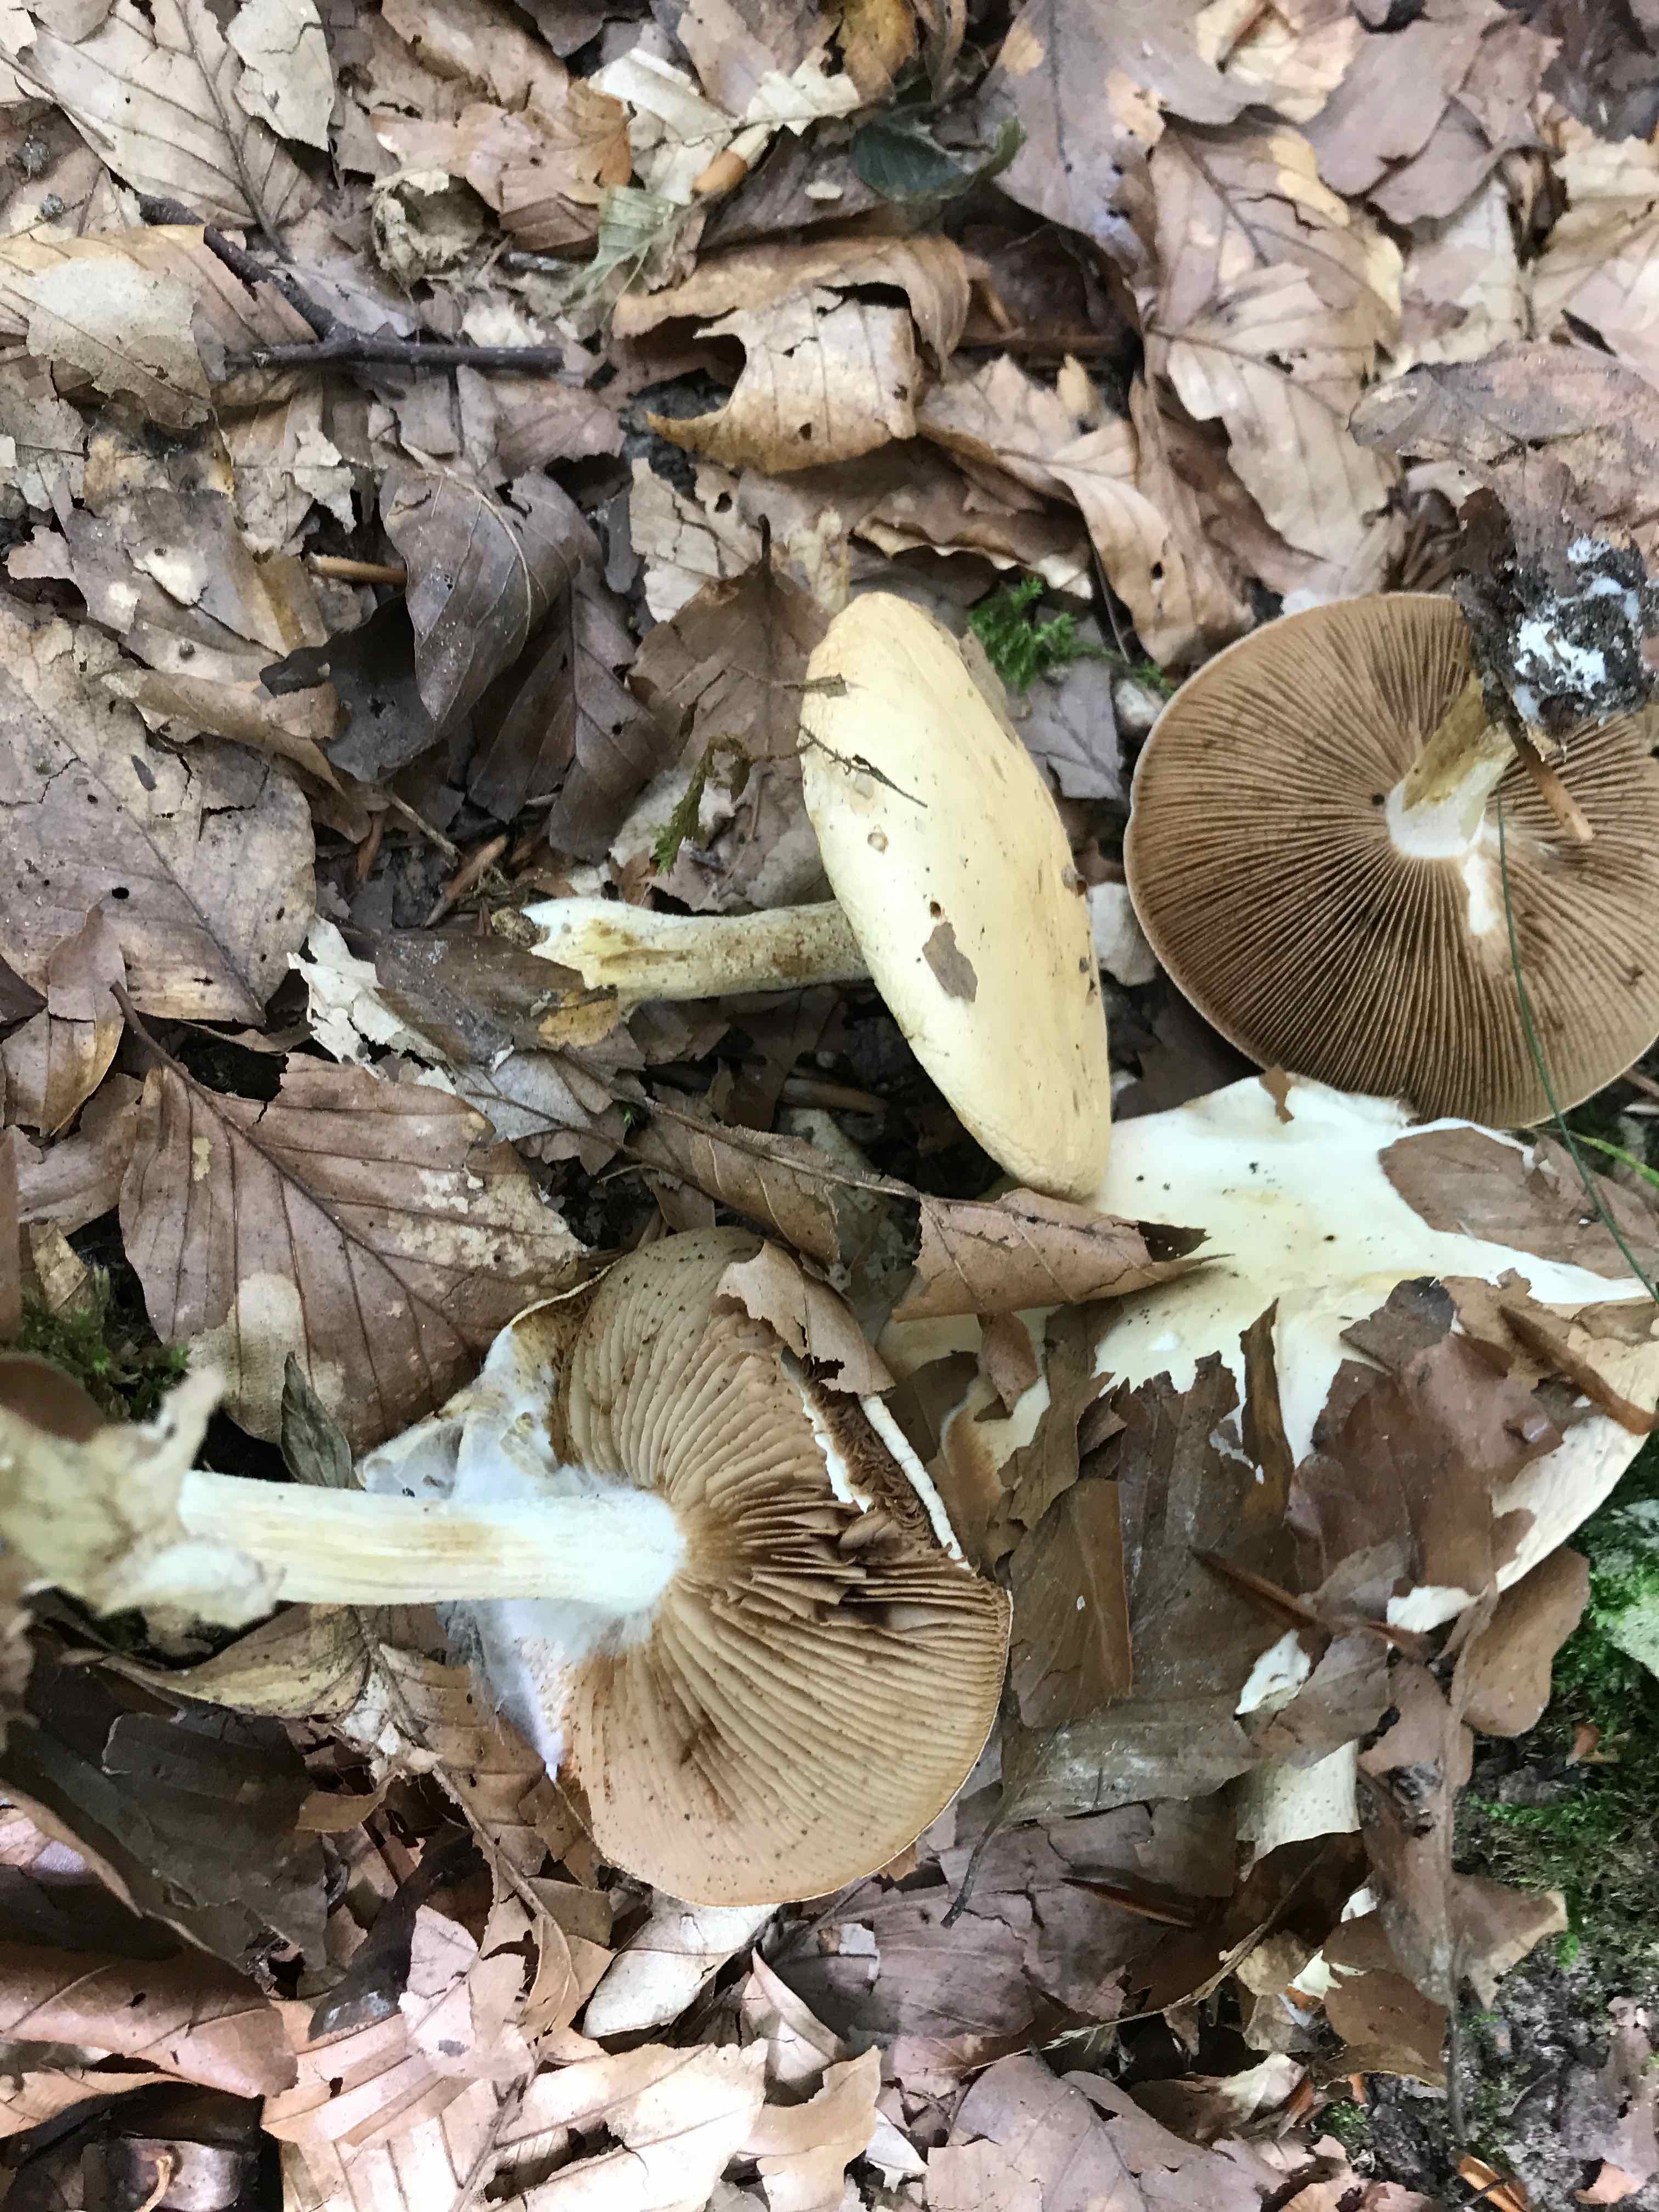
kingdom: Fungi
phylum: Basidiomycota
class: Agaricomycetes
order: Agaricales
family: Hymenogastraceae
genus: Hebeloma
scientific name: Hebeloma
